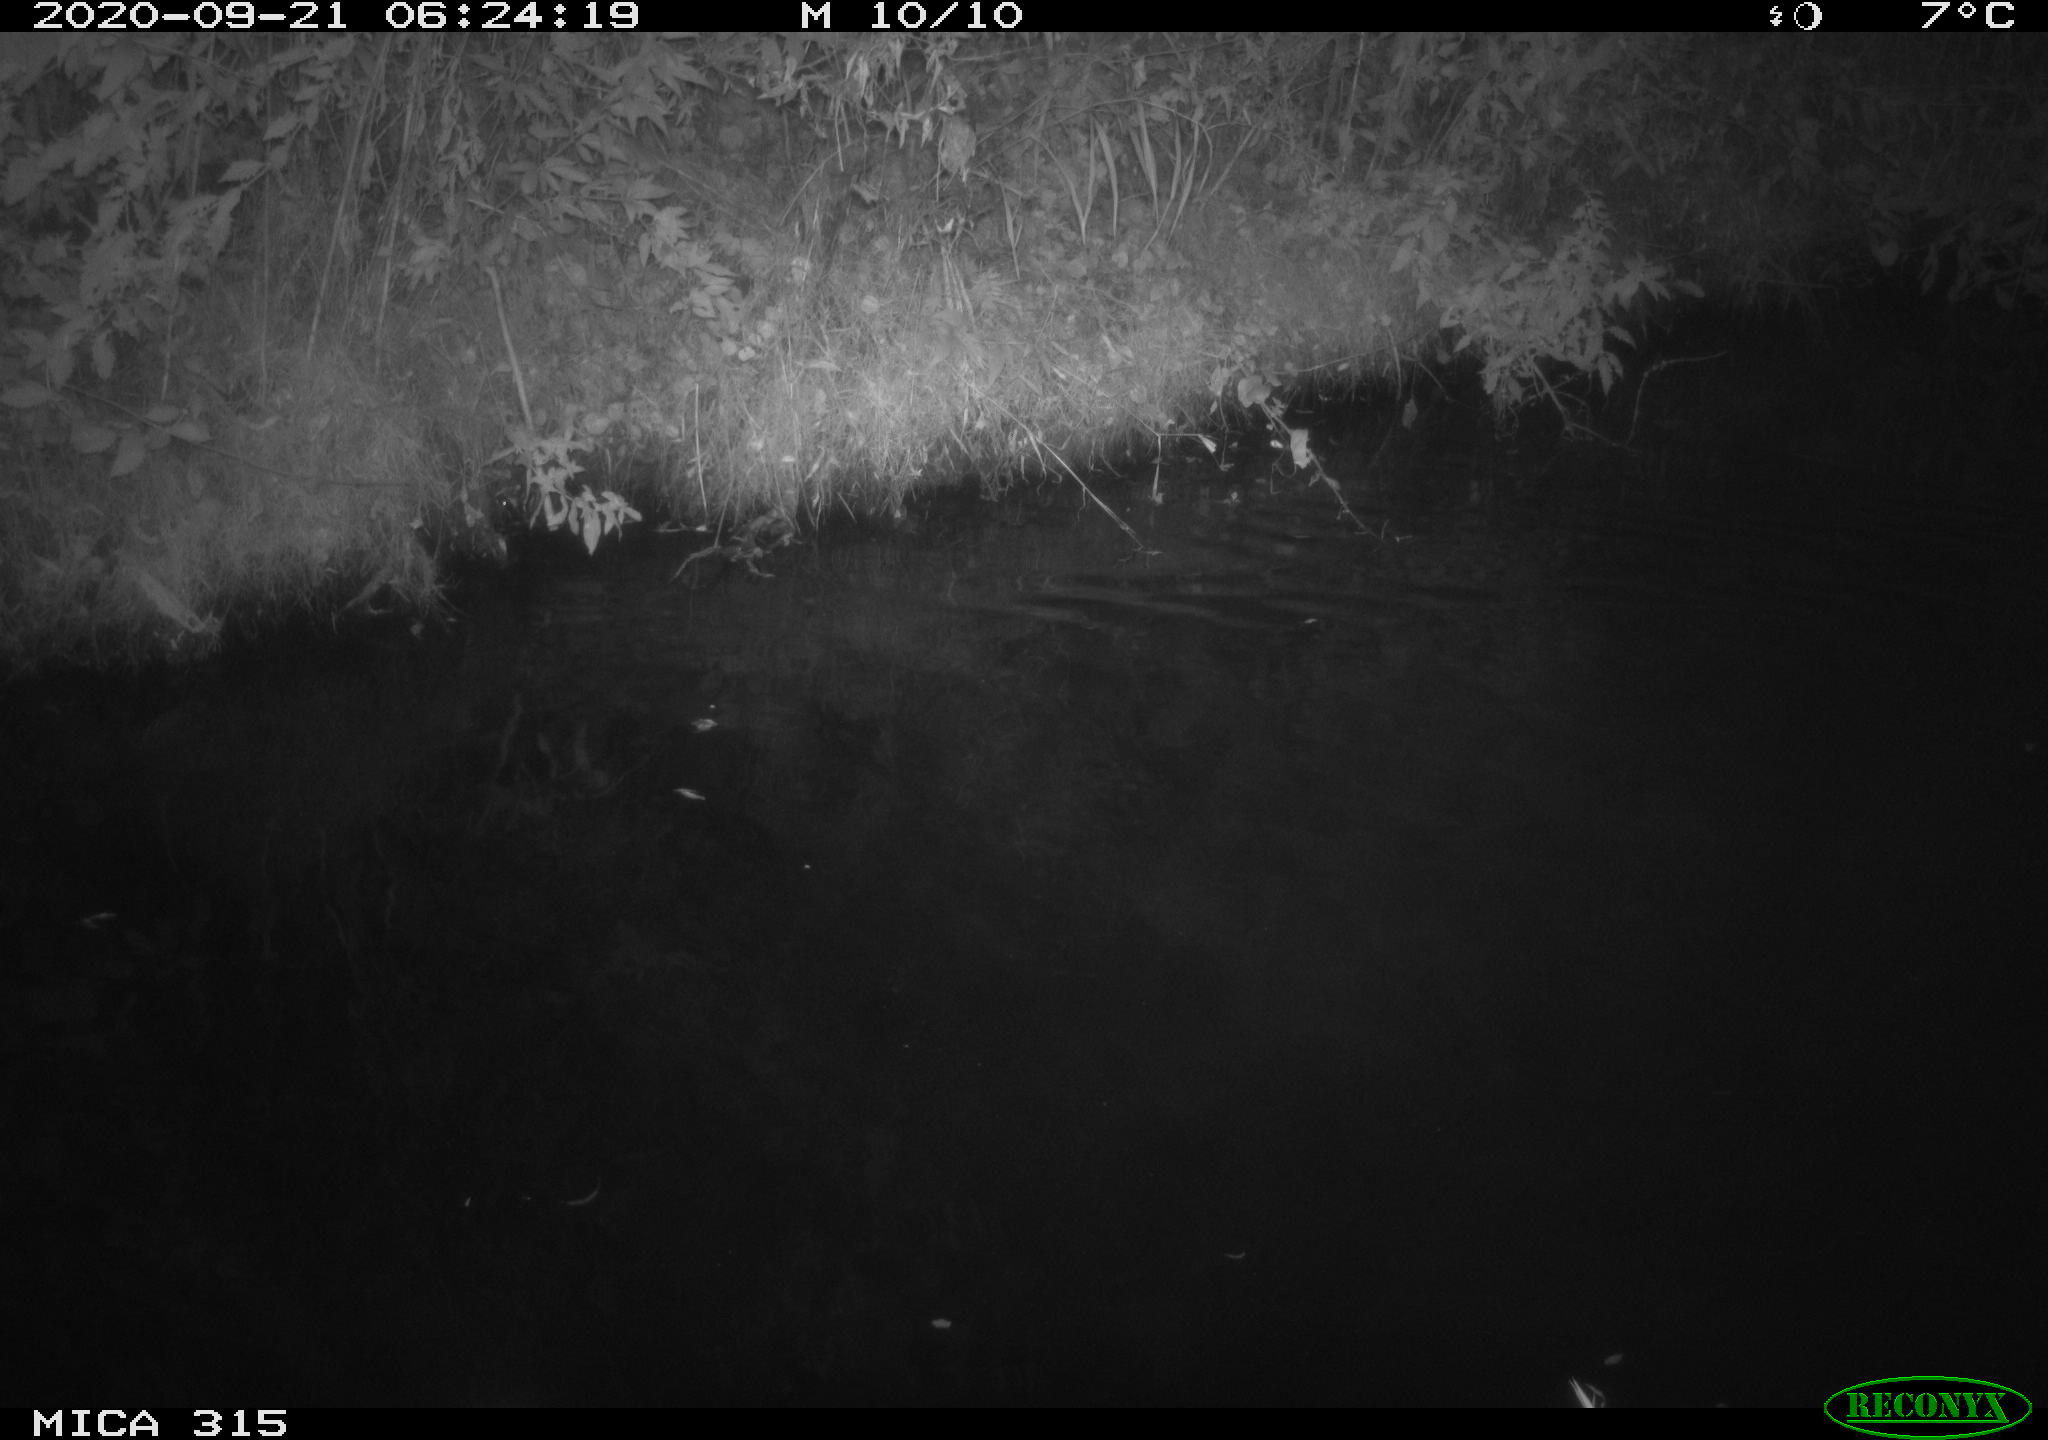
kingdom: Animalia
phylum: Chordata
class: Aves
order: Anseriformes
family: Anatidae
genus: Anas
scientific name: Anas platyrhynchos
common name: Mallard
